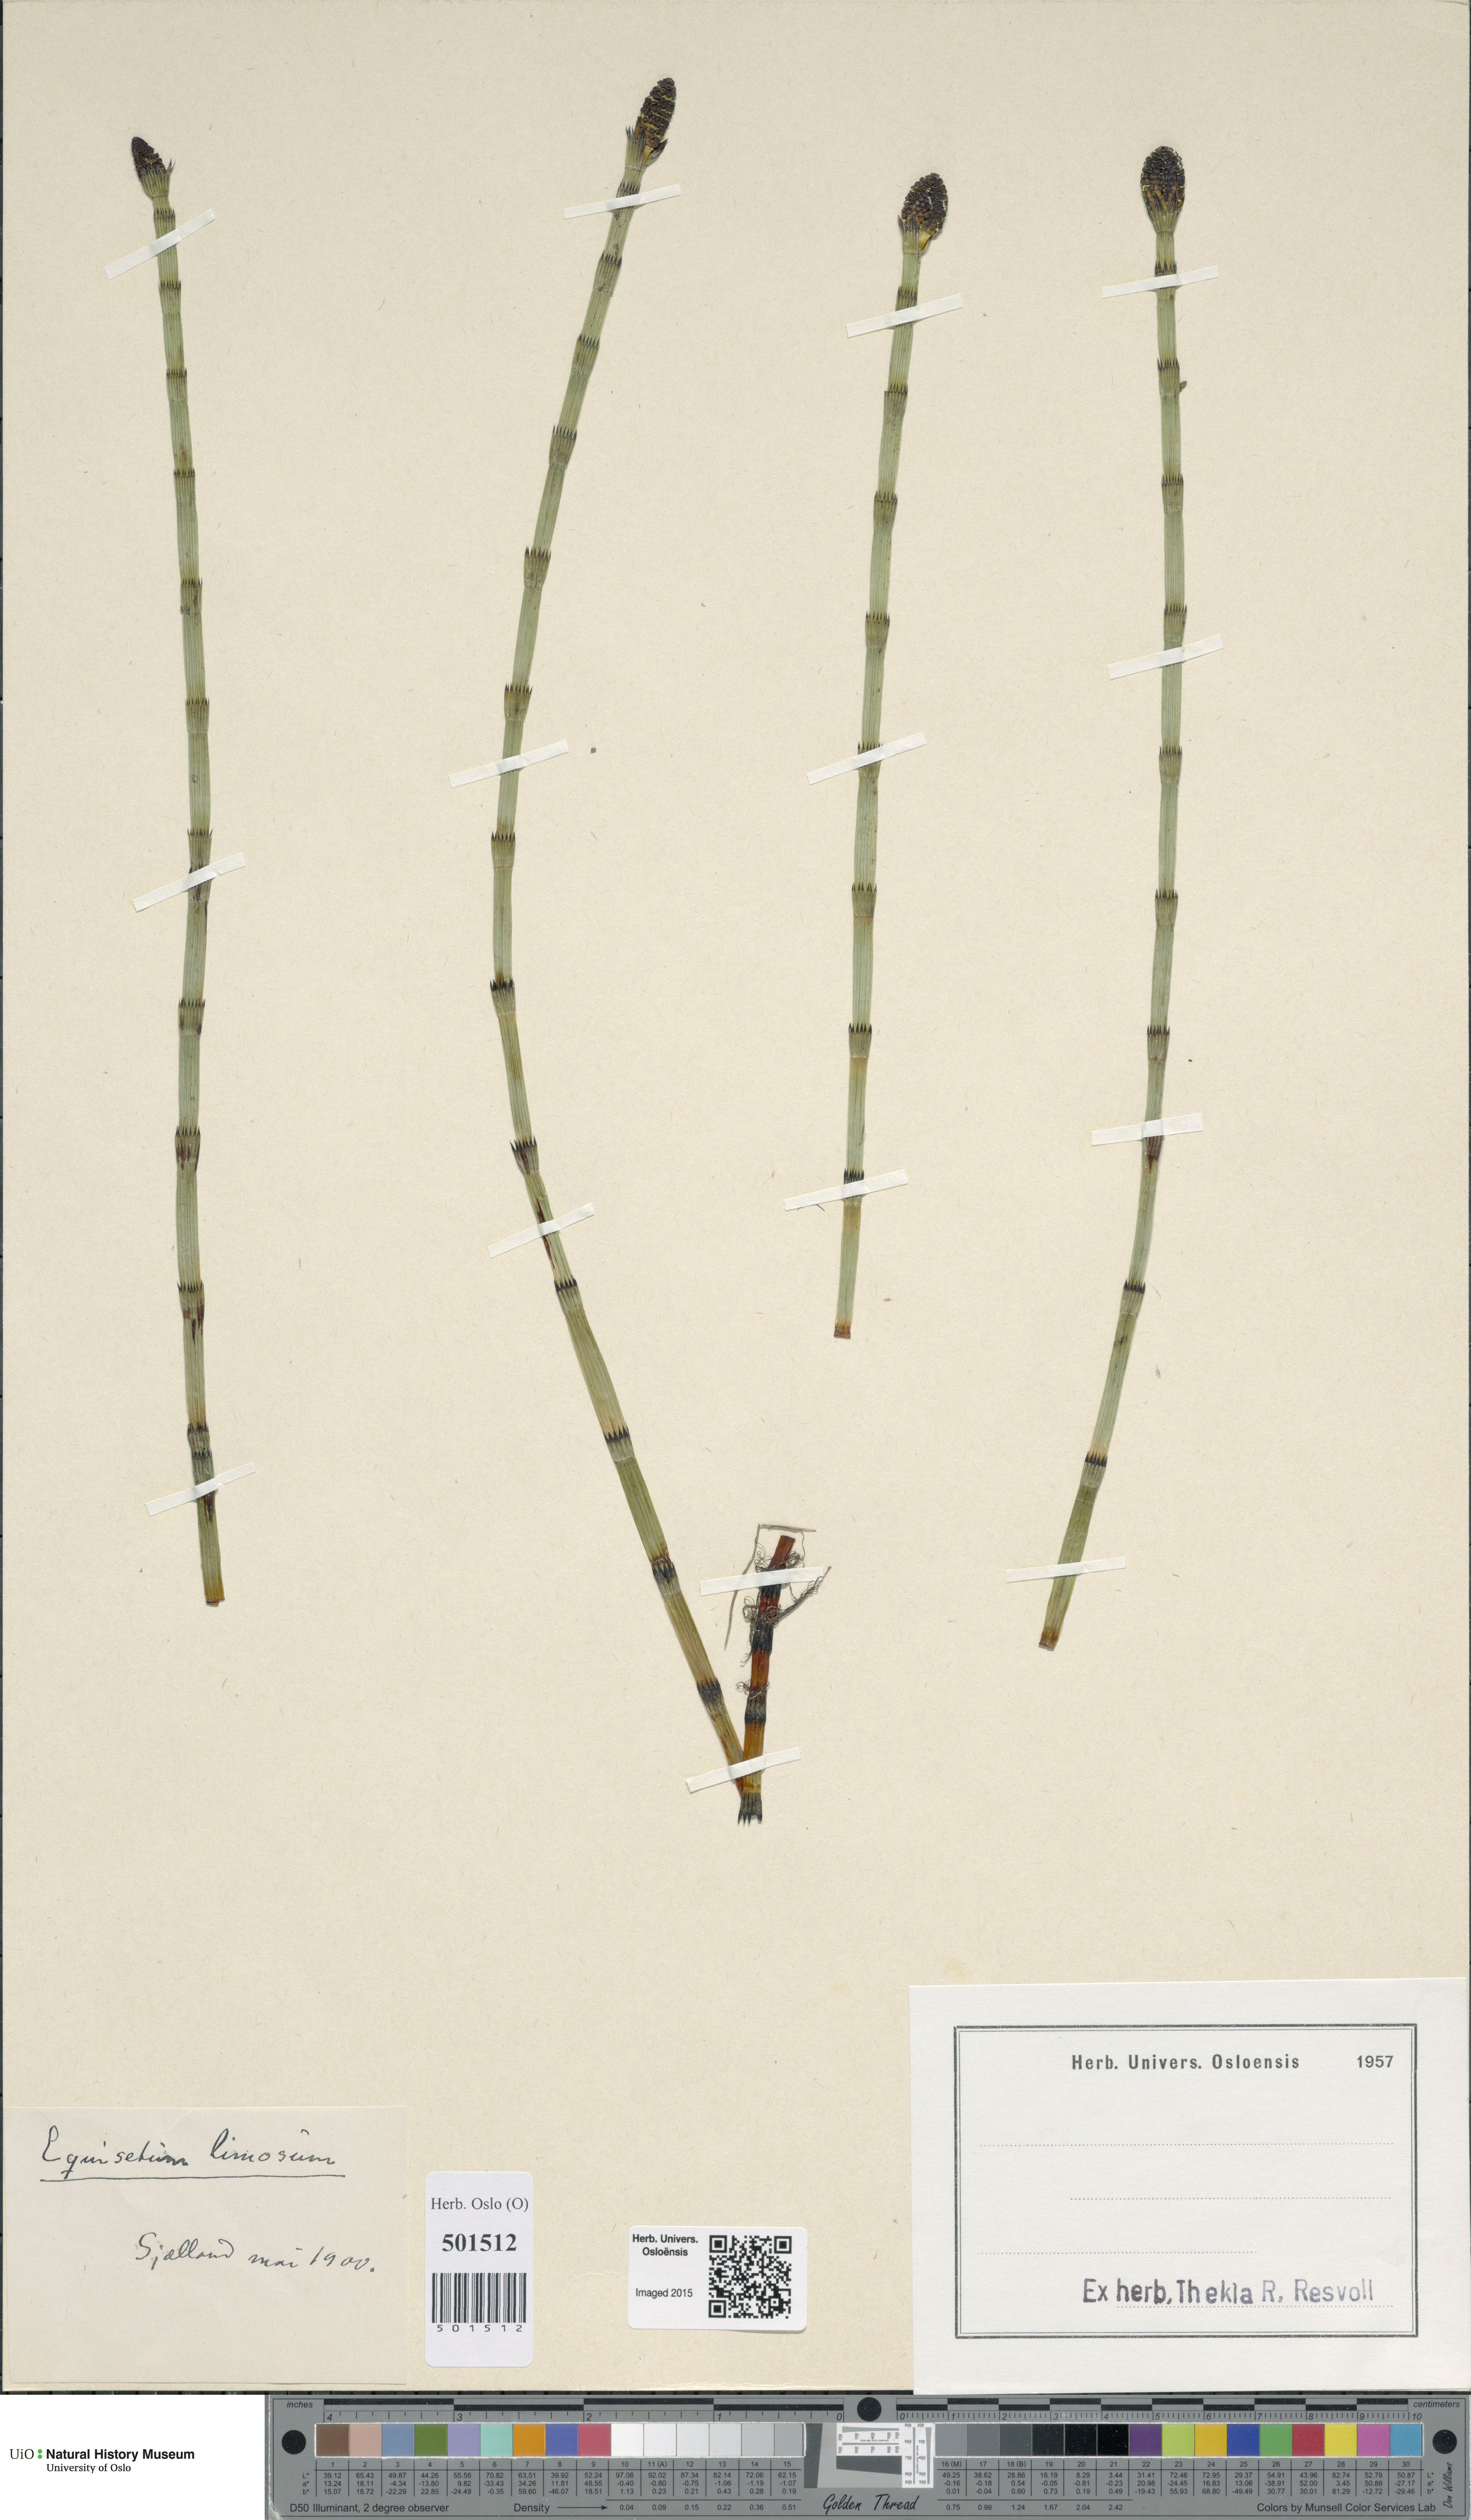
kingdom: Plantae
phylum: Tracheophyta
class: Polypodiopsida
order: Equisetales
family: Equisetaceae
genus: Equisetum
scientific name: Equisetum fluviatile
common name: Water horsetail
